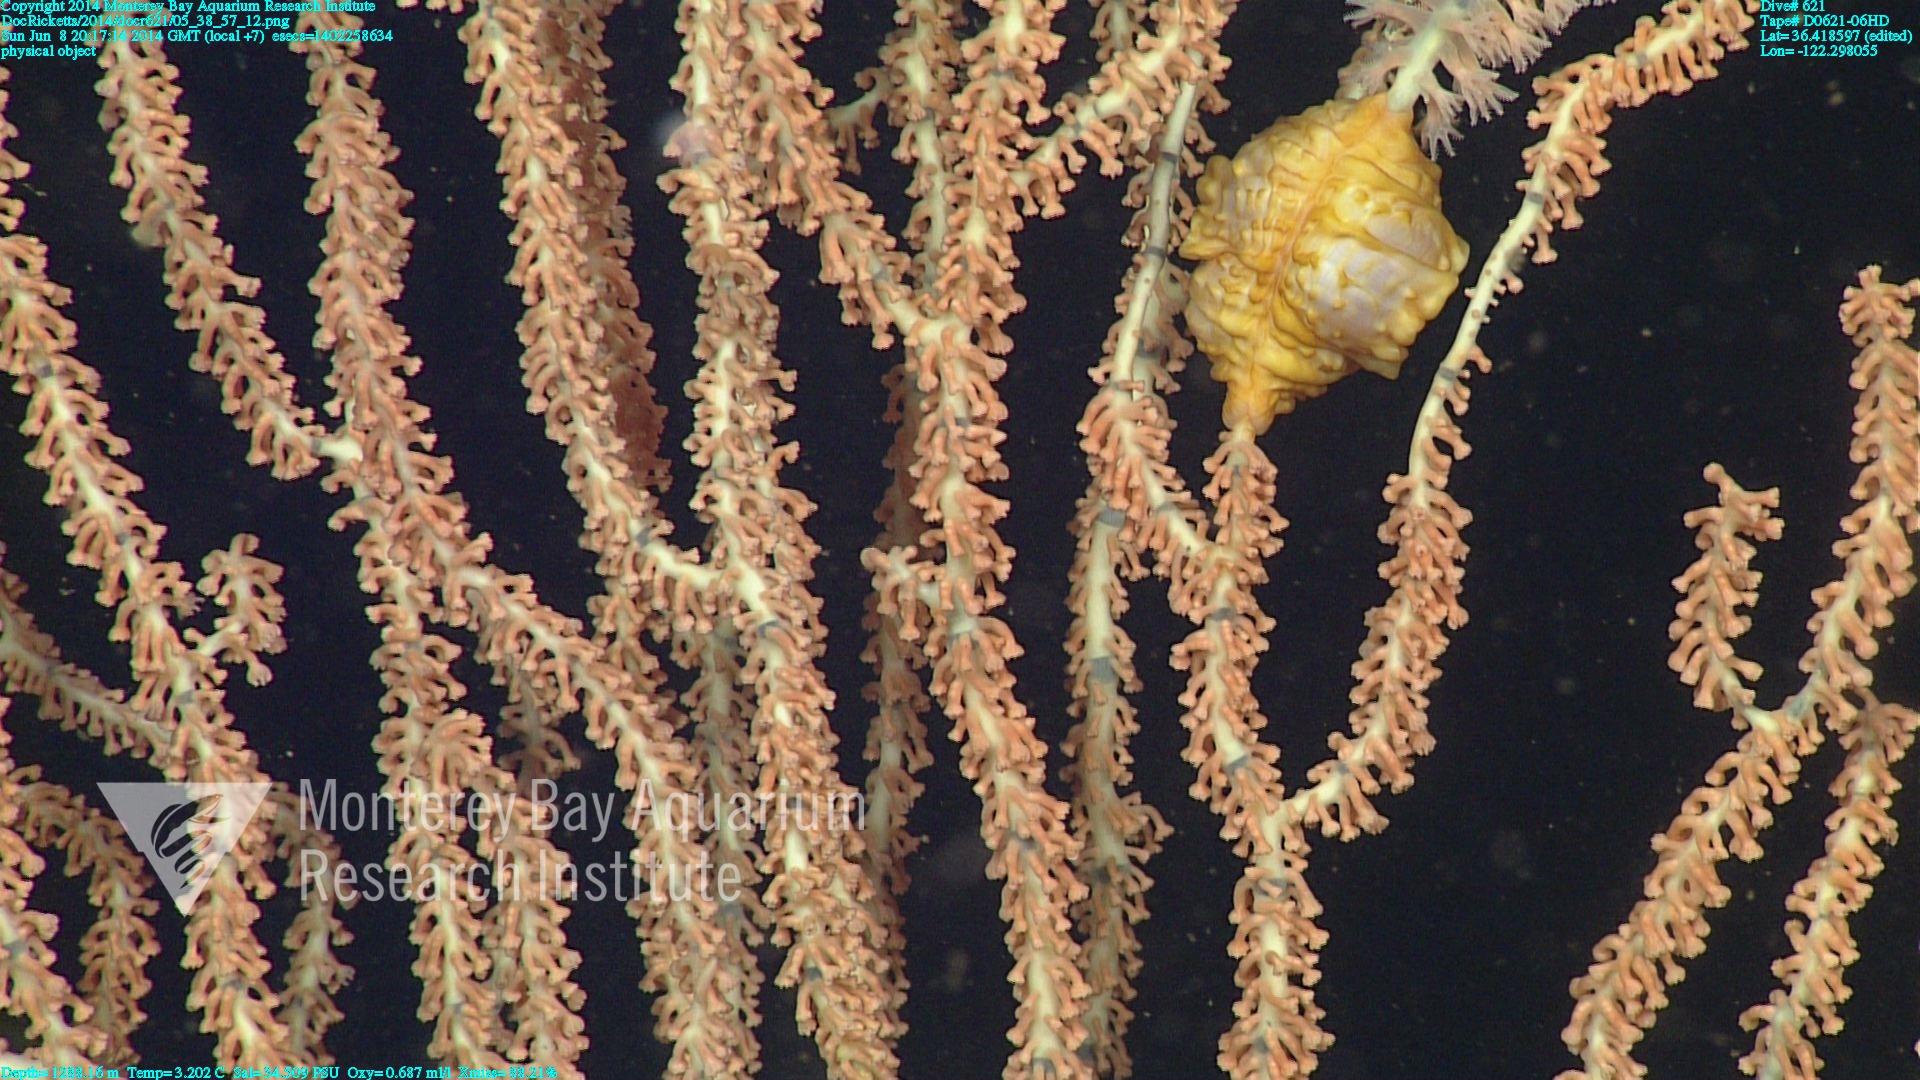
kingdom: Animalia
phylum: Cnidaria
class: Anthozoa
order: Scleralcyonacea
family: Keratoisididae
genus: Keratoisis
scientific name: Keratoisis
